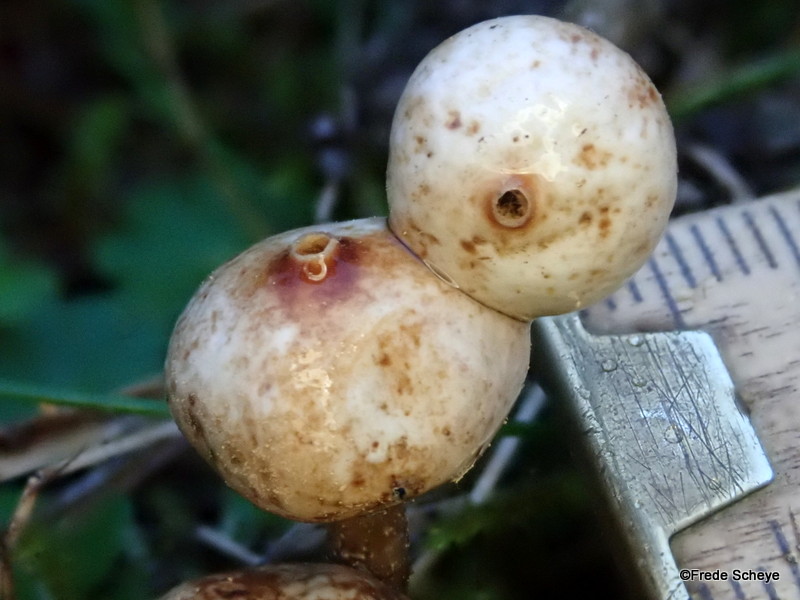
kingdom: Fungi
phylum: Basidiomycota
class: Agaricomycetes
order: Agaricales
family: Agaricaceae
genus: Tulostoma
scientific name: Tulostoma brumale
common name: vinter-stilkbovist
